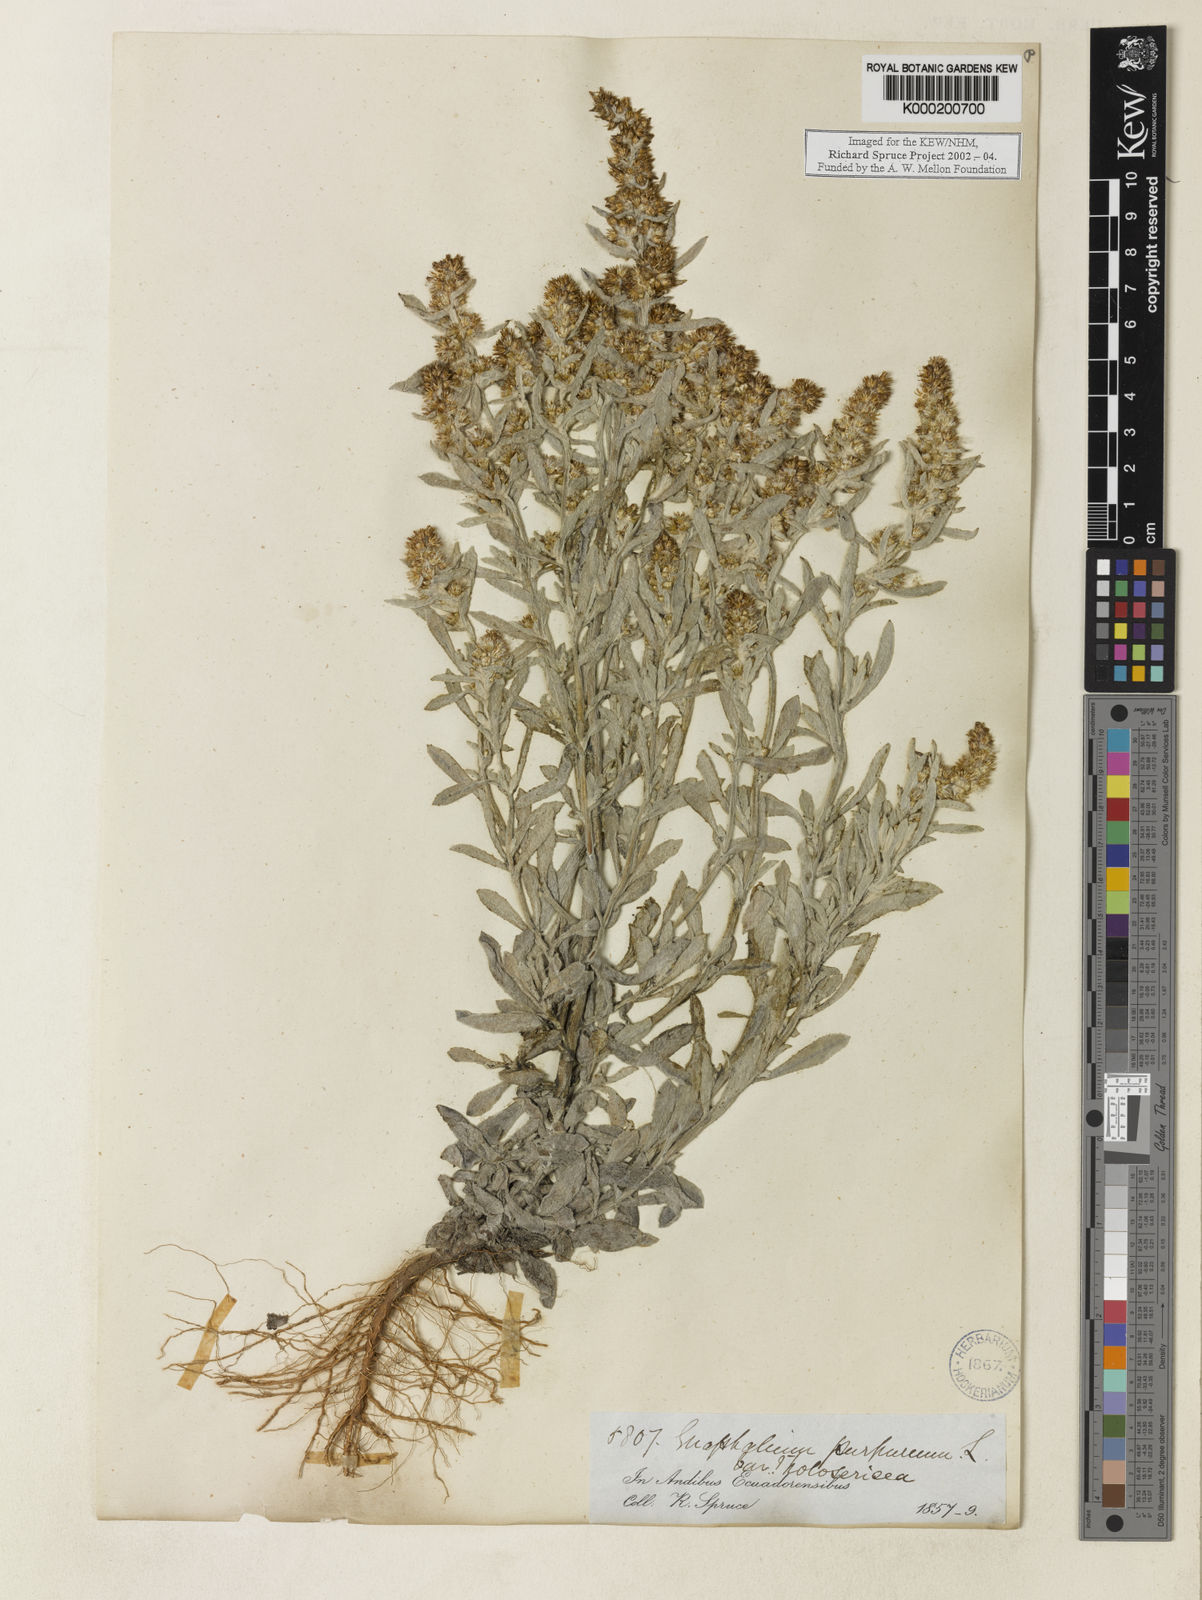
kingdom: Plantae
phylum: Tracheophyta
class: Magnoliopsida
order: Asterales
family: Asteraceae
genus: Gnaphalium
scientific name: Gnaphalium
